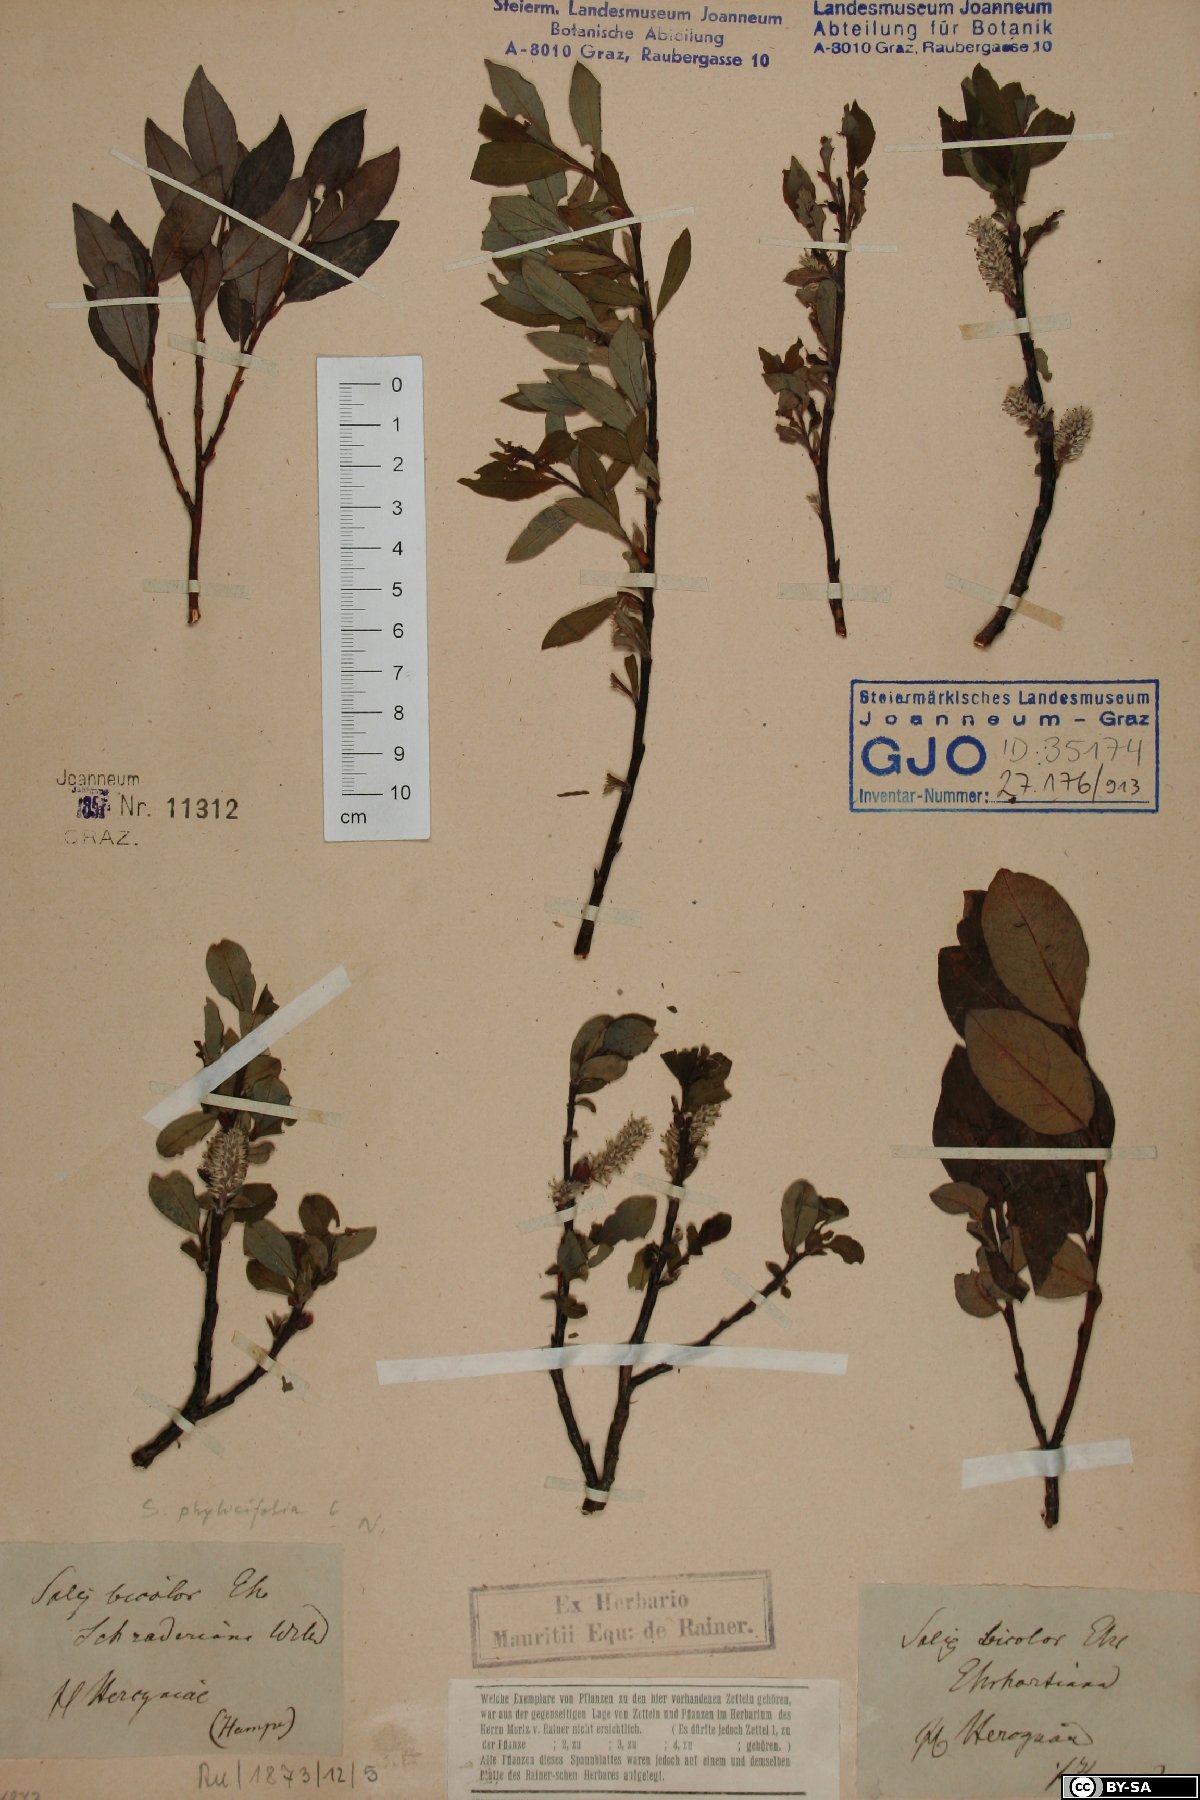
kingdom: Plantae
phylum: Tracheophyta
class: Magnoliopsida
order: Malpighiales
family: Salicaceae
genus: Salix
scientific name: Salix phylicifolia
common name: Tea-leaved willow
